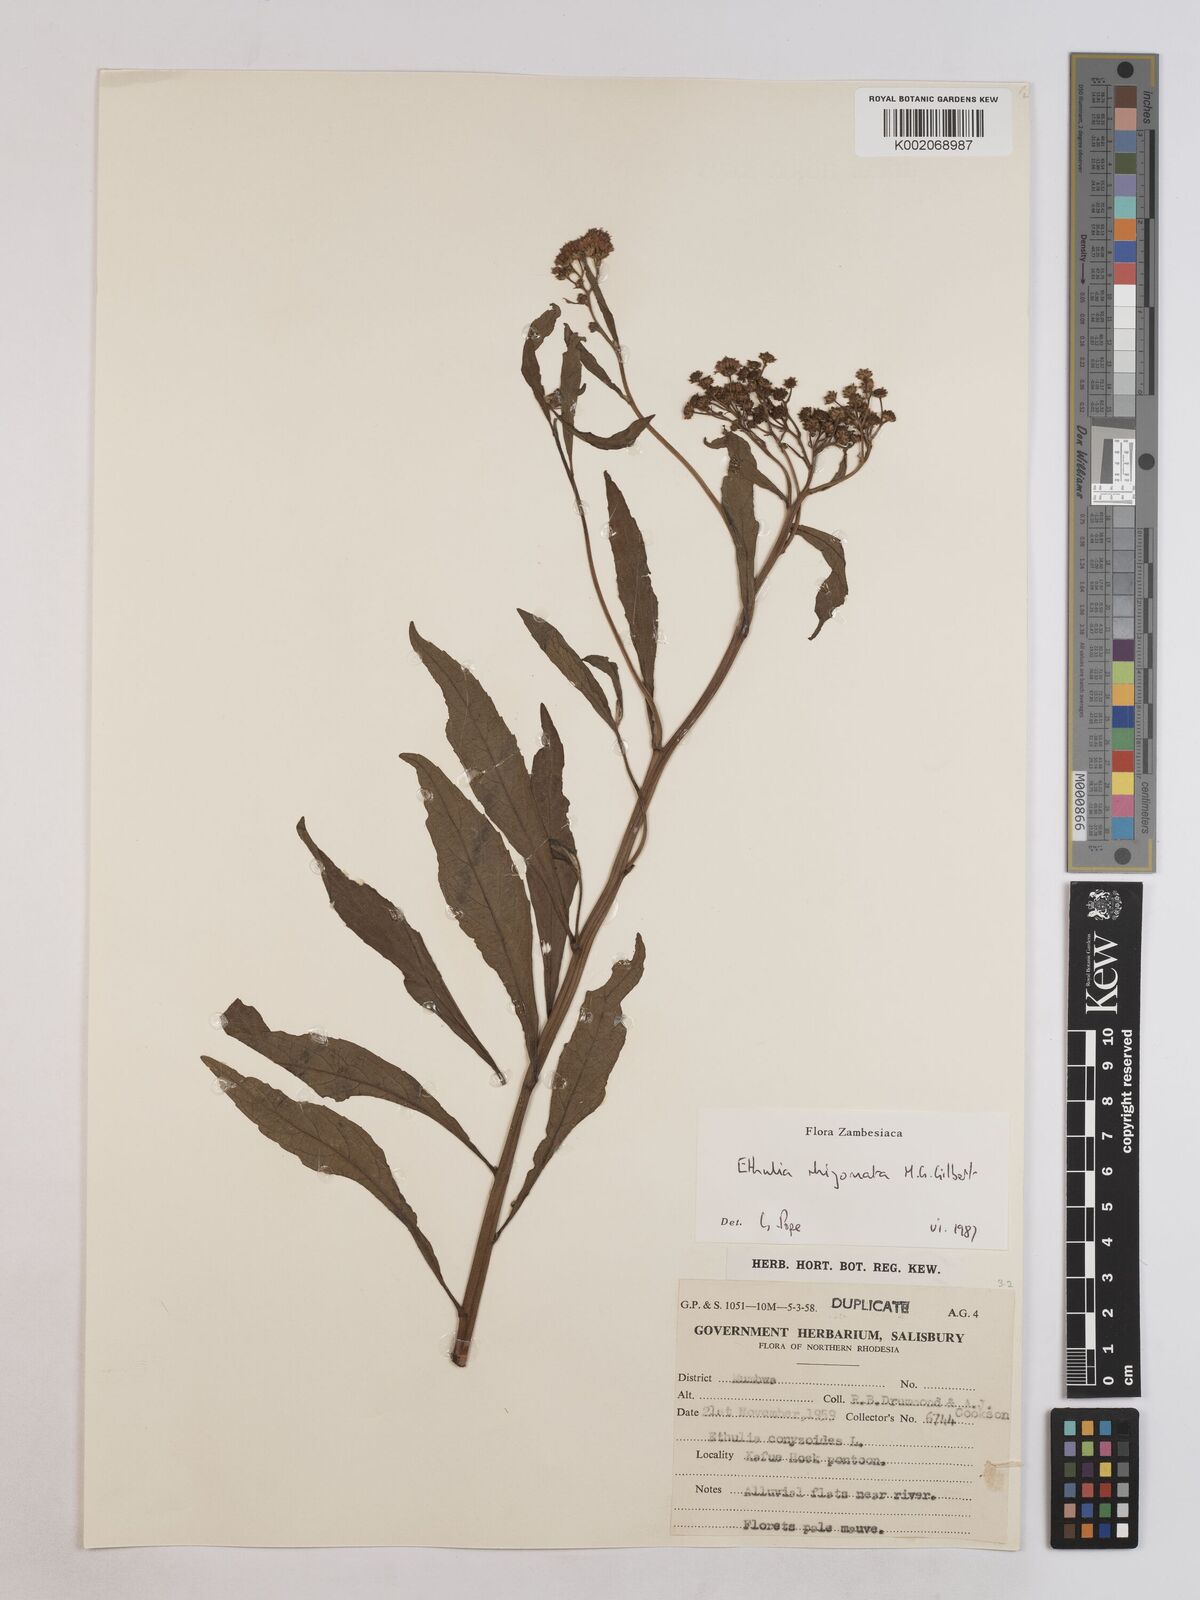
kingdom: Plantae
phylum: Tracheophyta
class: Magnoliopsida
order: Asterales
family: Asteraceae
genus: Ethulia
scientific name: Ethulia rhizomata
